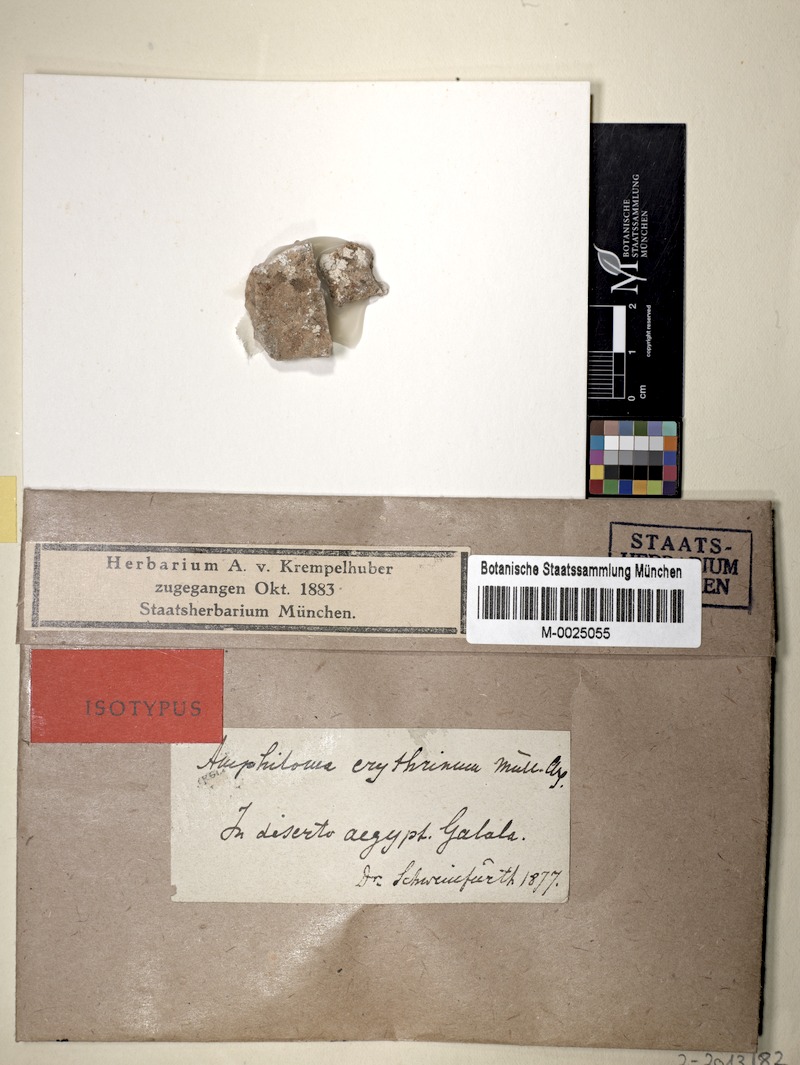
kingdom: Fungi
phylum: Ascomycota
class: Lecanoromycetes
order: Teloschistales
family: Teloschistaceae
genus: Variospora
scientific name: Variospora erythrina
